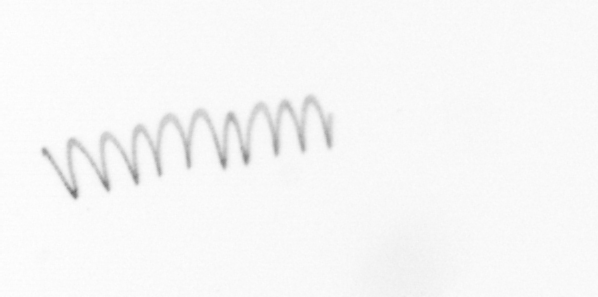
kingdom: Chromista
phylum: Ochrophyta
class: Bacillariophyceae
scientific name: Bacillariophyceae
